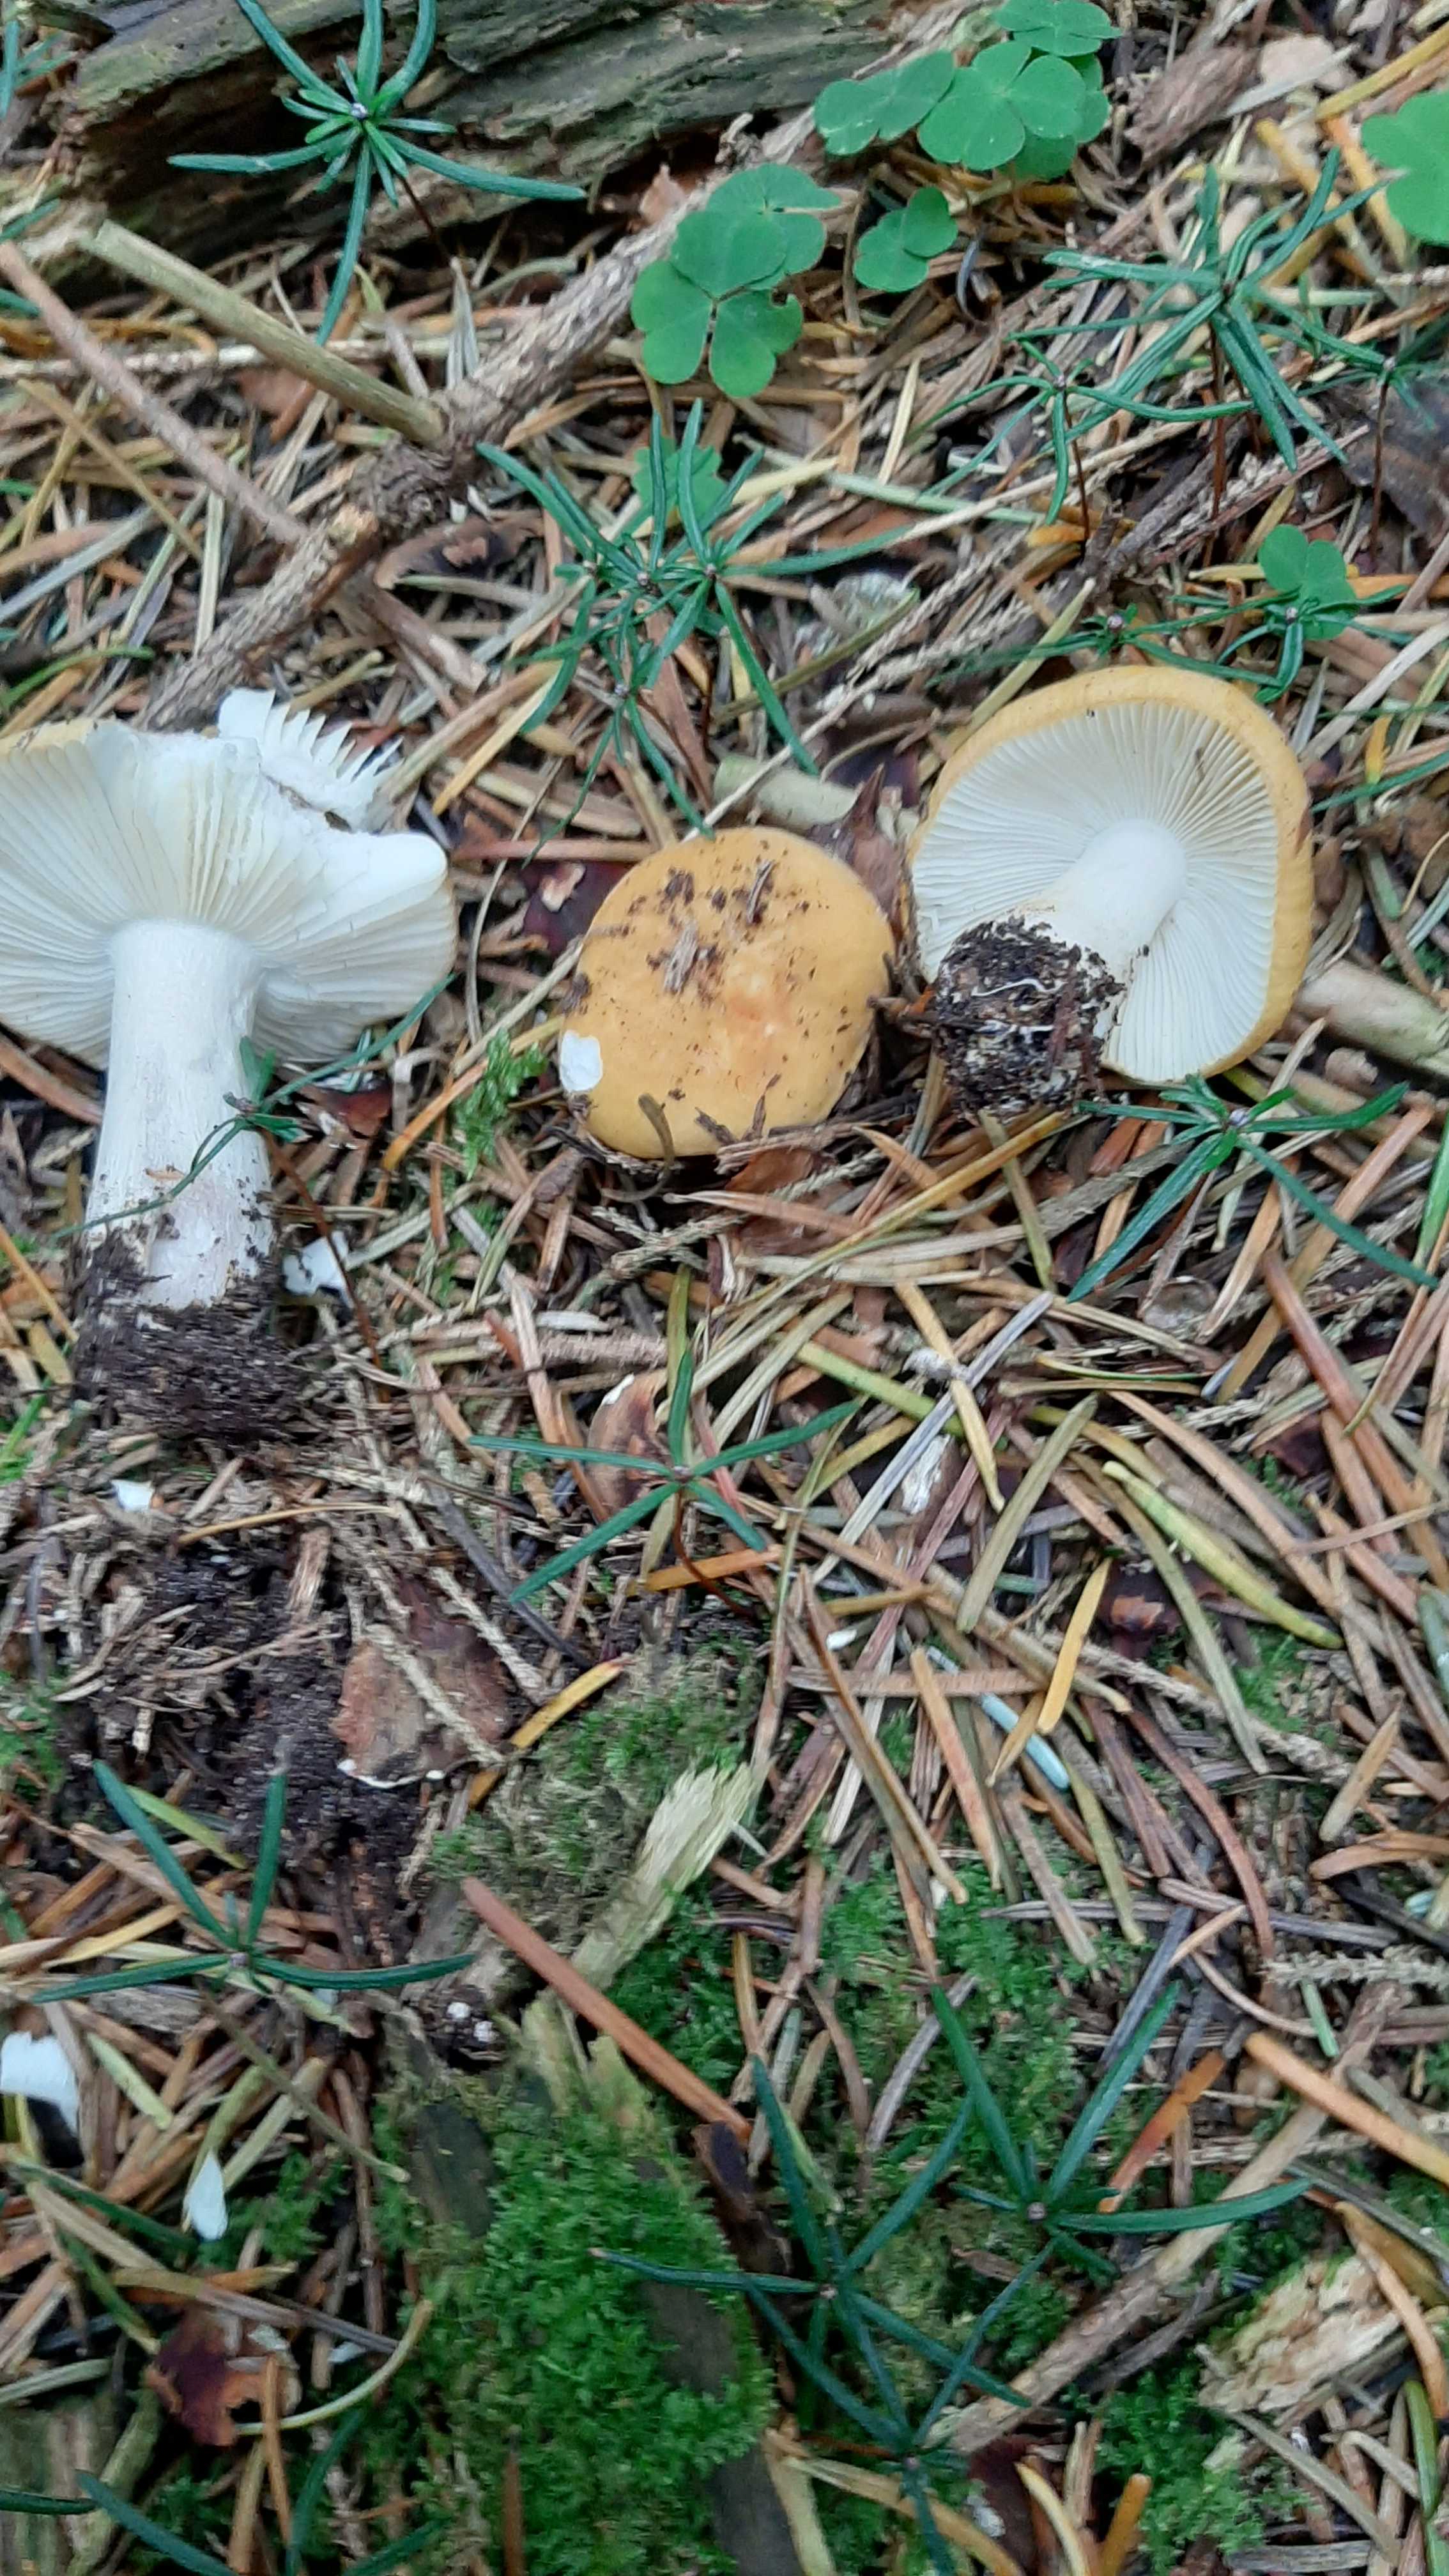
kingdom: Fungi
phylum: Basidiomycota
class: Agaricomycetes
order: Russulales
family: Russulaceae
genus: Russula
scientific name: Russula ochroleuca
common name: okkergul skørhat
